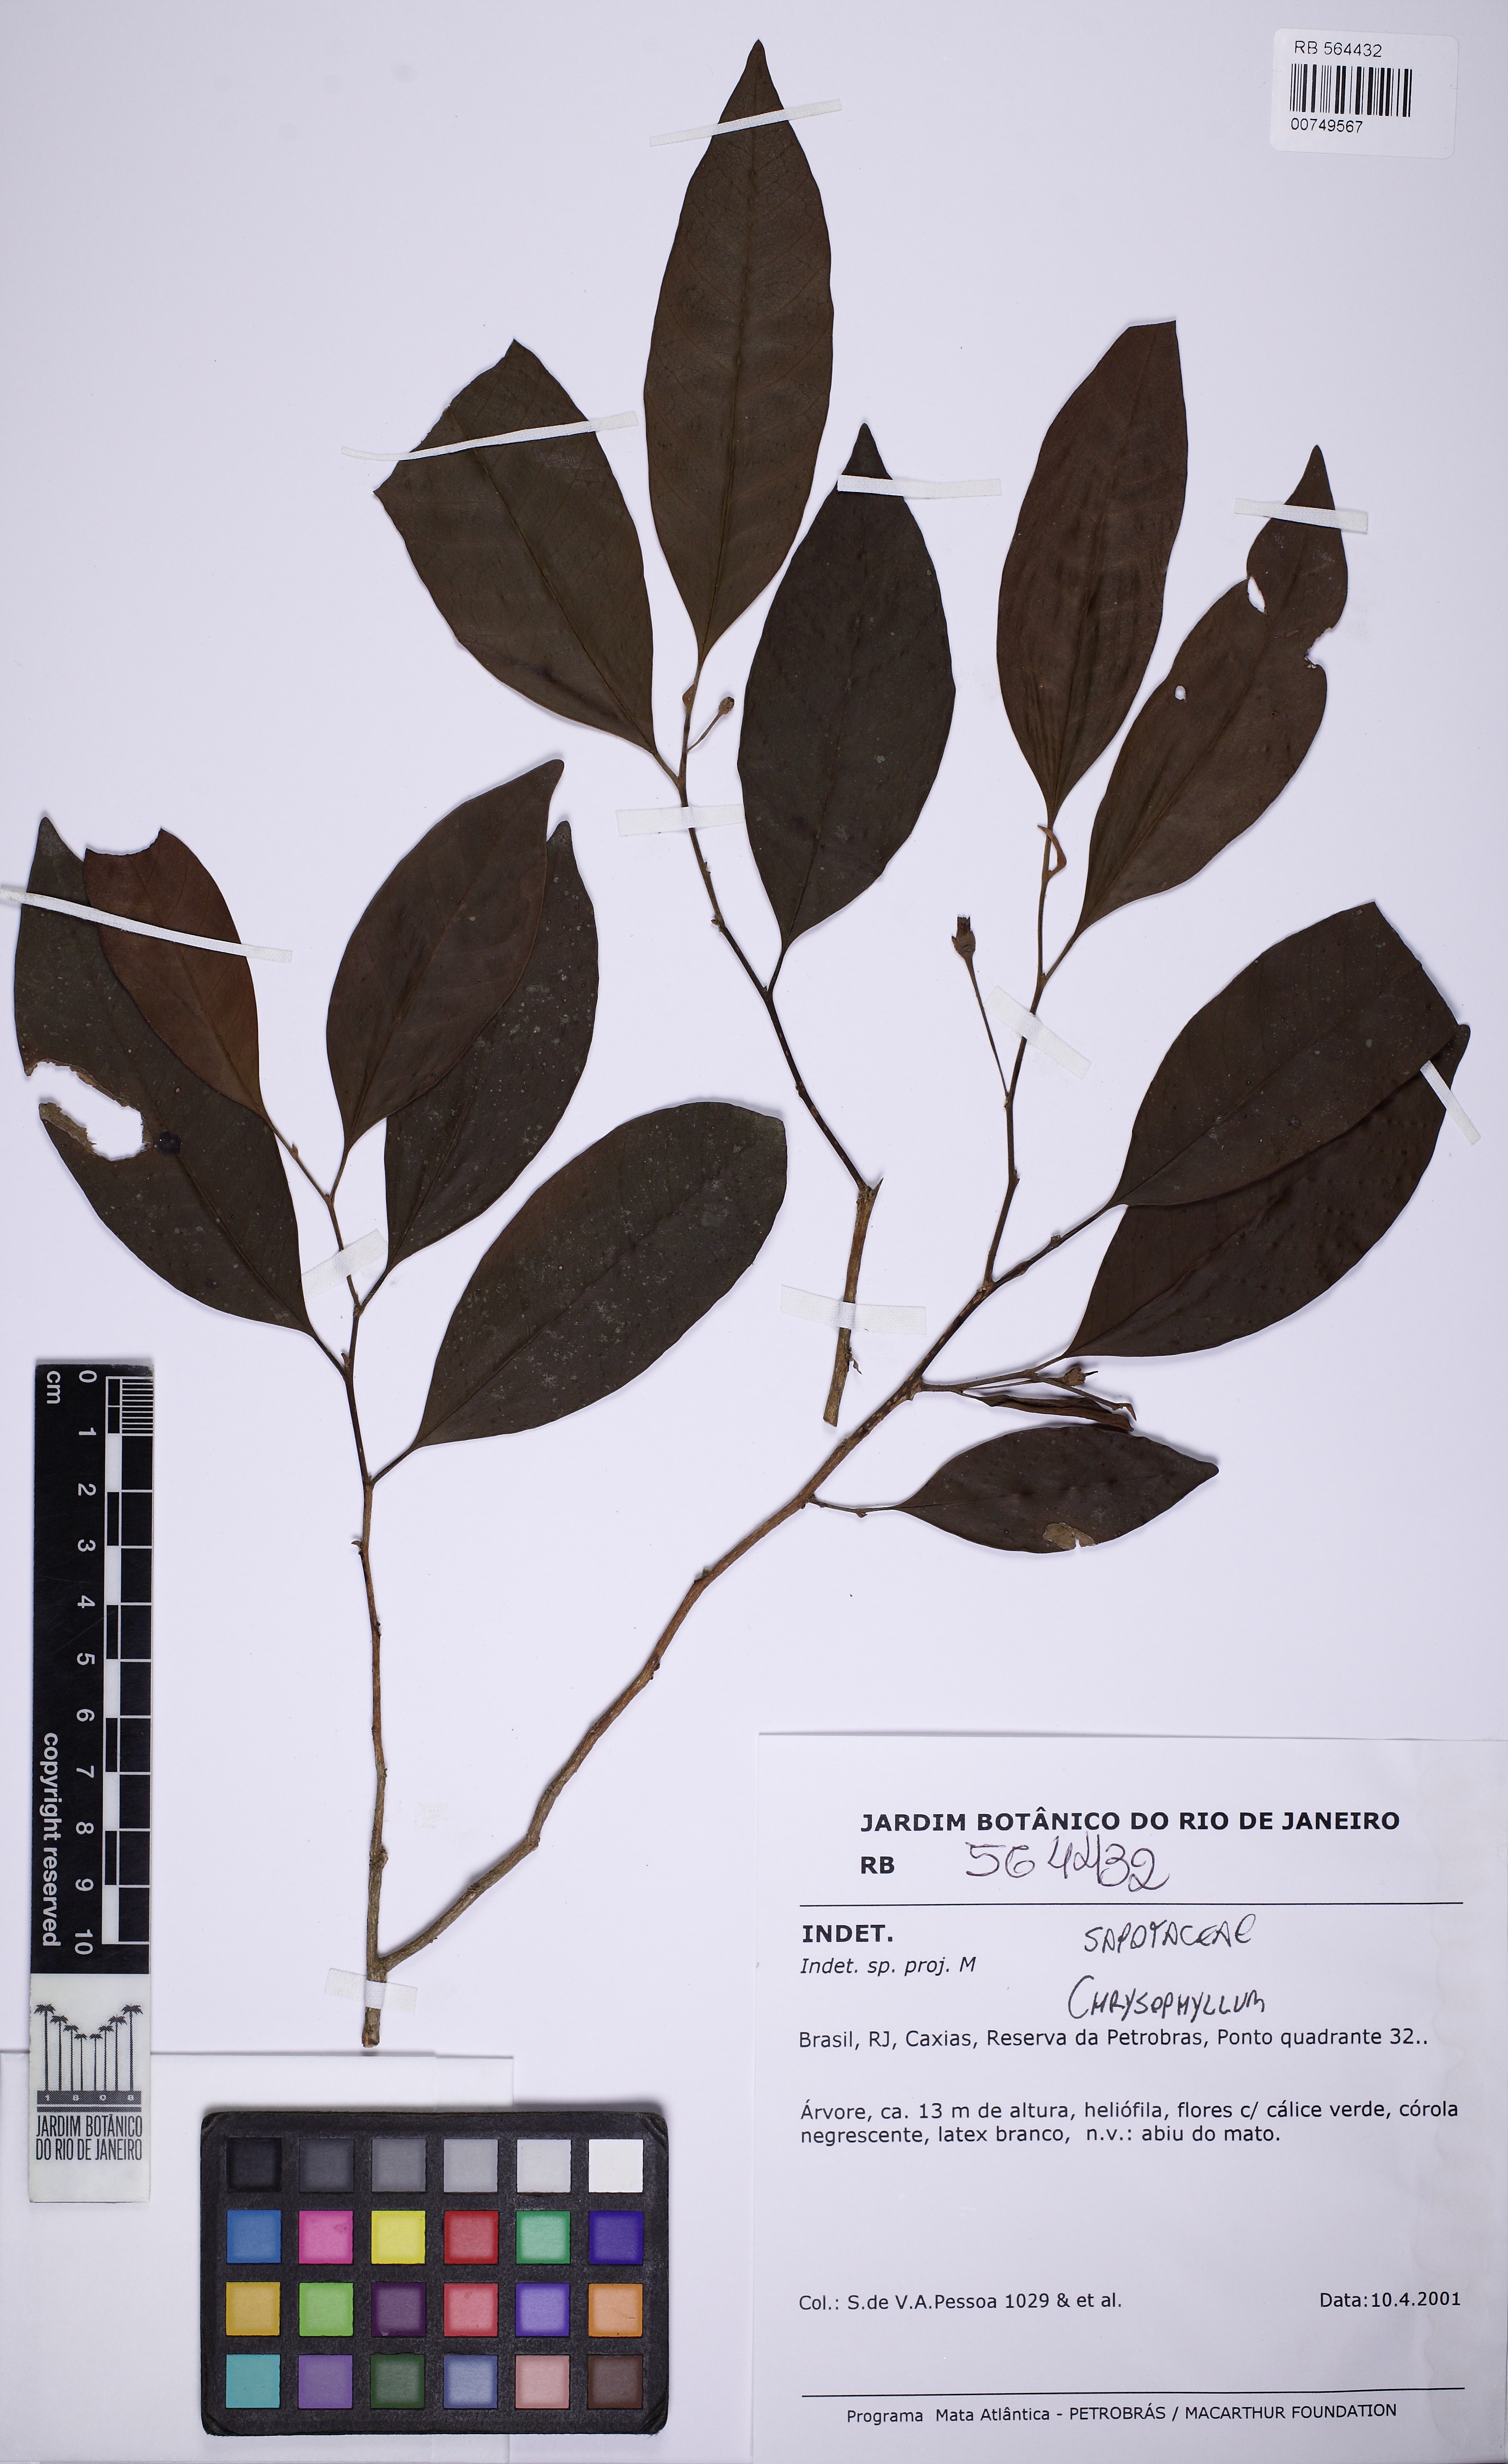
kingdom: Plantae
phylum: Tracheophyta
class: Magnoliopsida
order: Ericales
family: Sapotaceae
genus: Chrysophyllum
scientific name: Chrysophyllum inornatum
